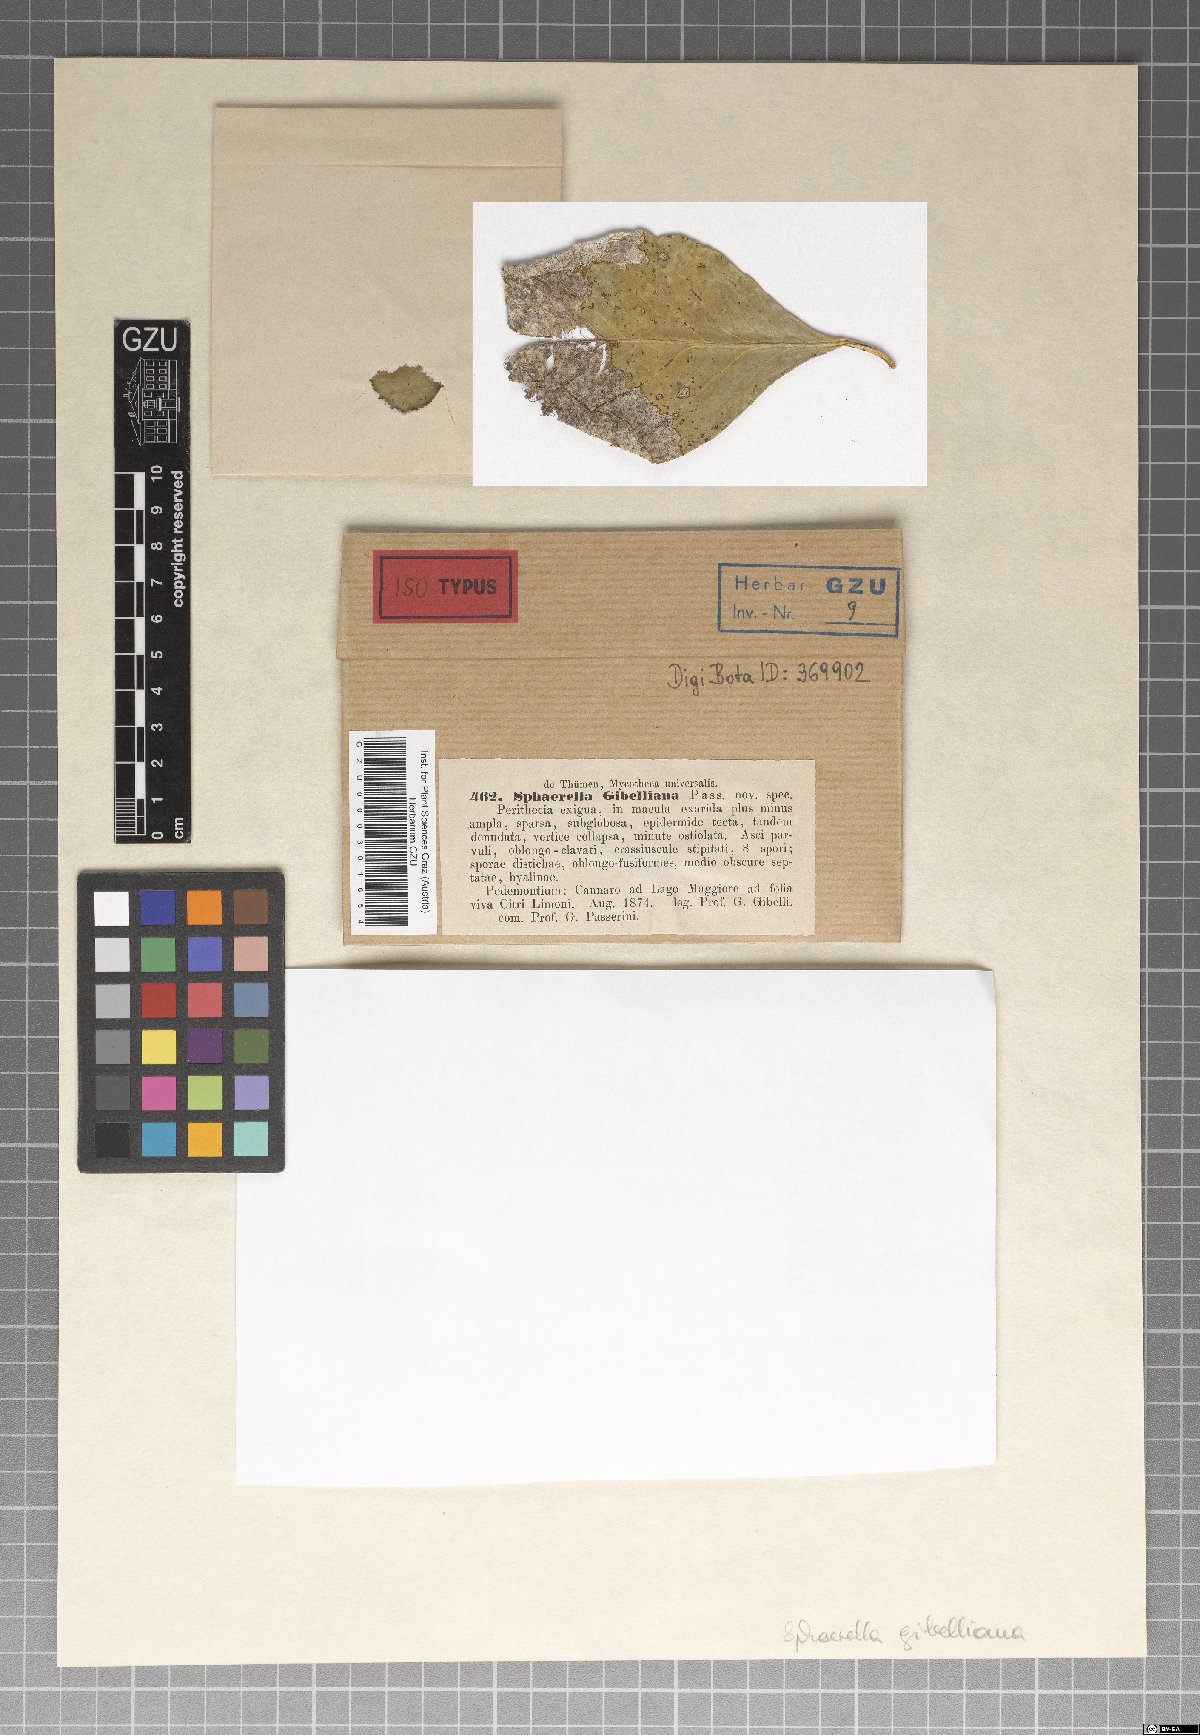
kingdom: Fungi
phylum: Ascomycota
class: Dothideomycetes
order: Mycosphaerellales
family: Mycosphaerellaceae
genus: Mycosphaerella
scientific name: Mycosphaerella gibelliana
